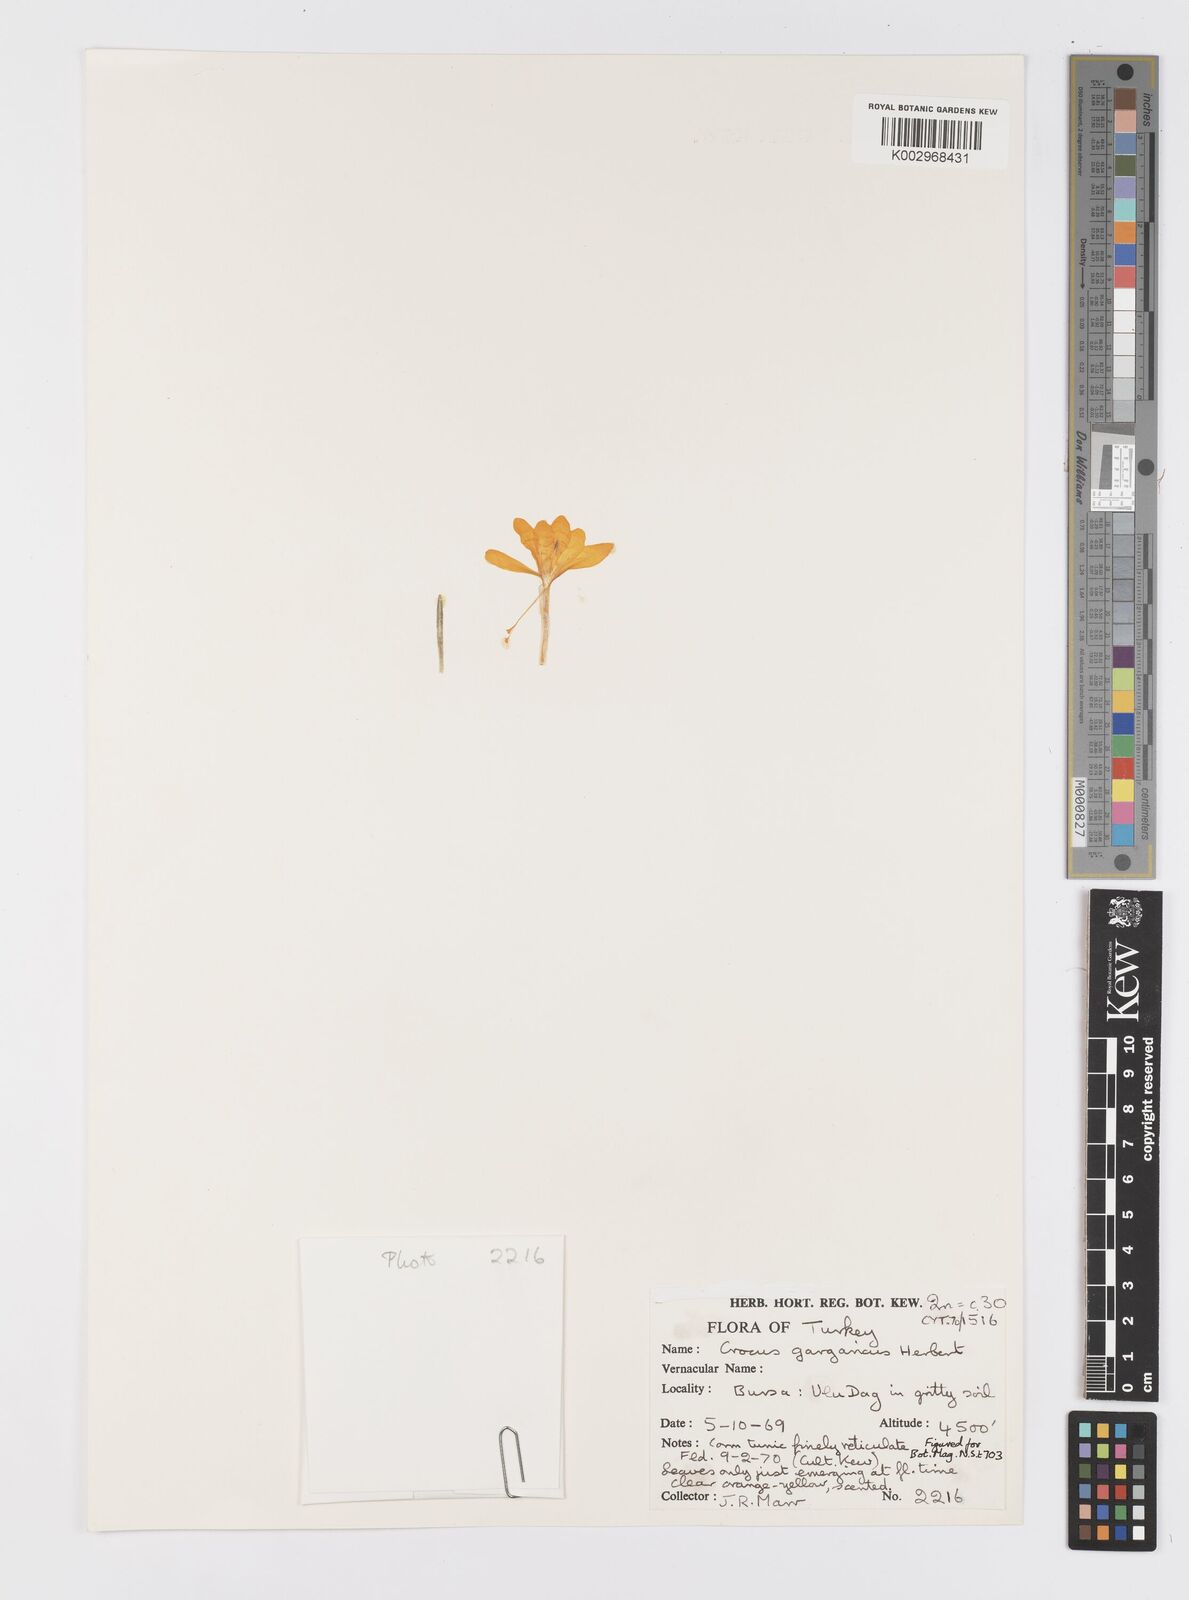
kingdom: Plantae
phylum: Tracheophyta
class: Liliopsida
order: Asparagales
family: Iridaceae
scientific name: Iridaceae
